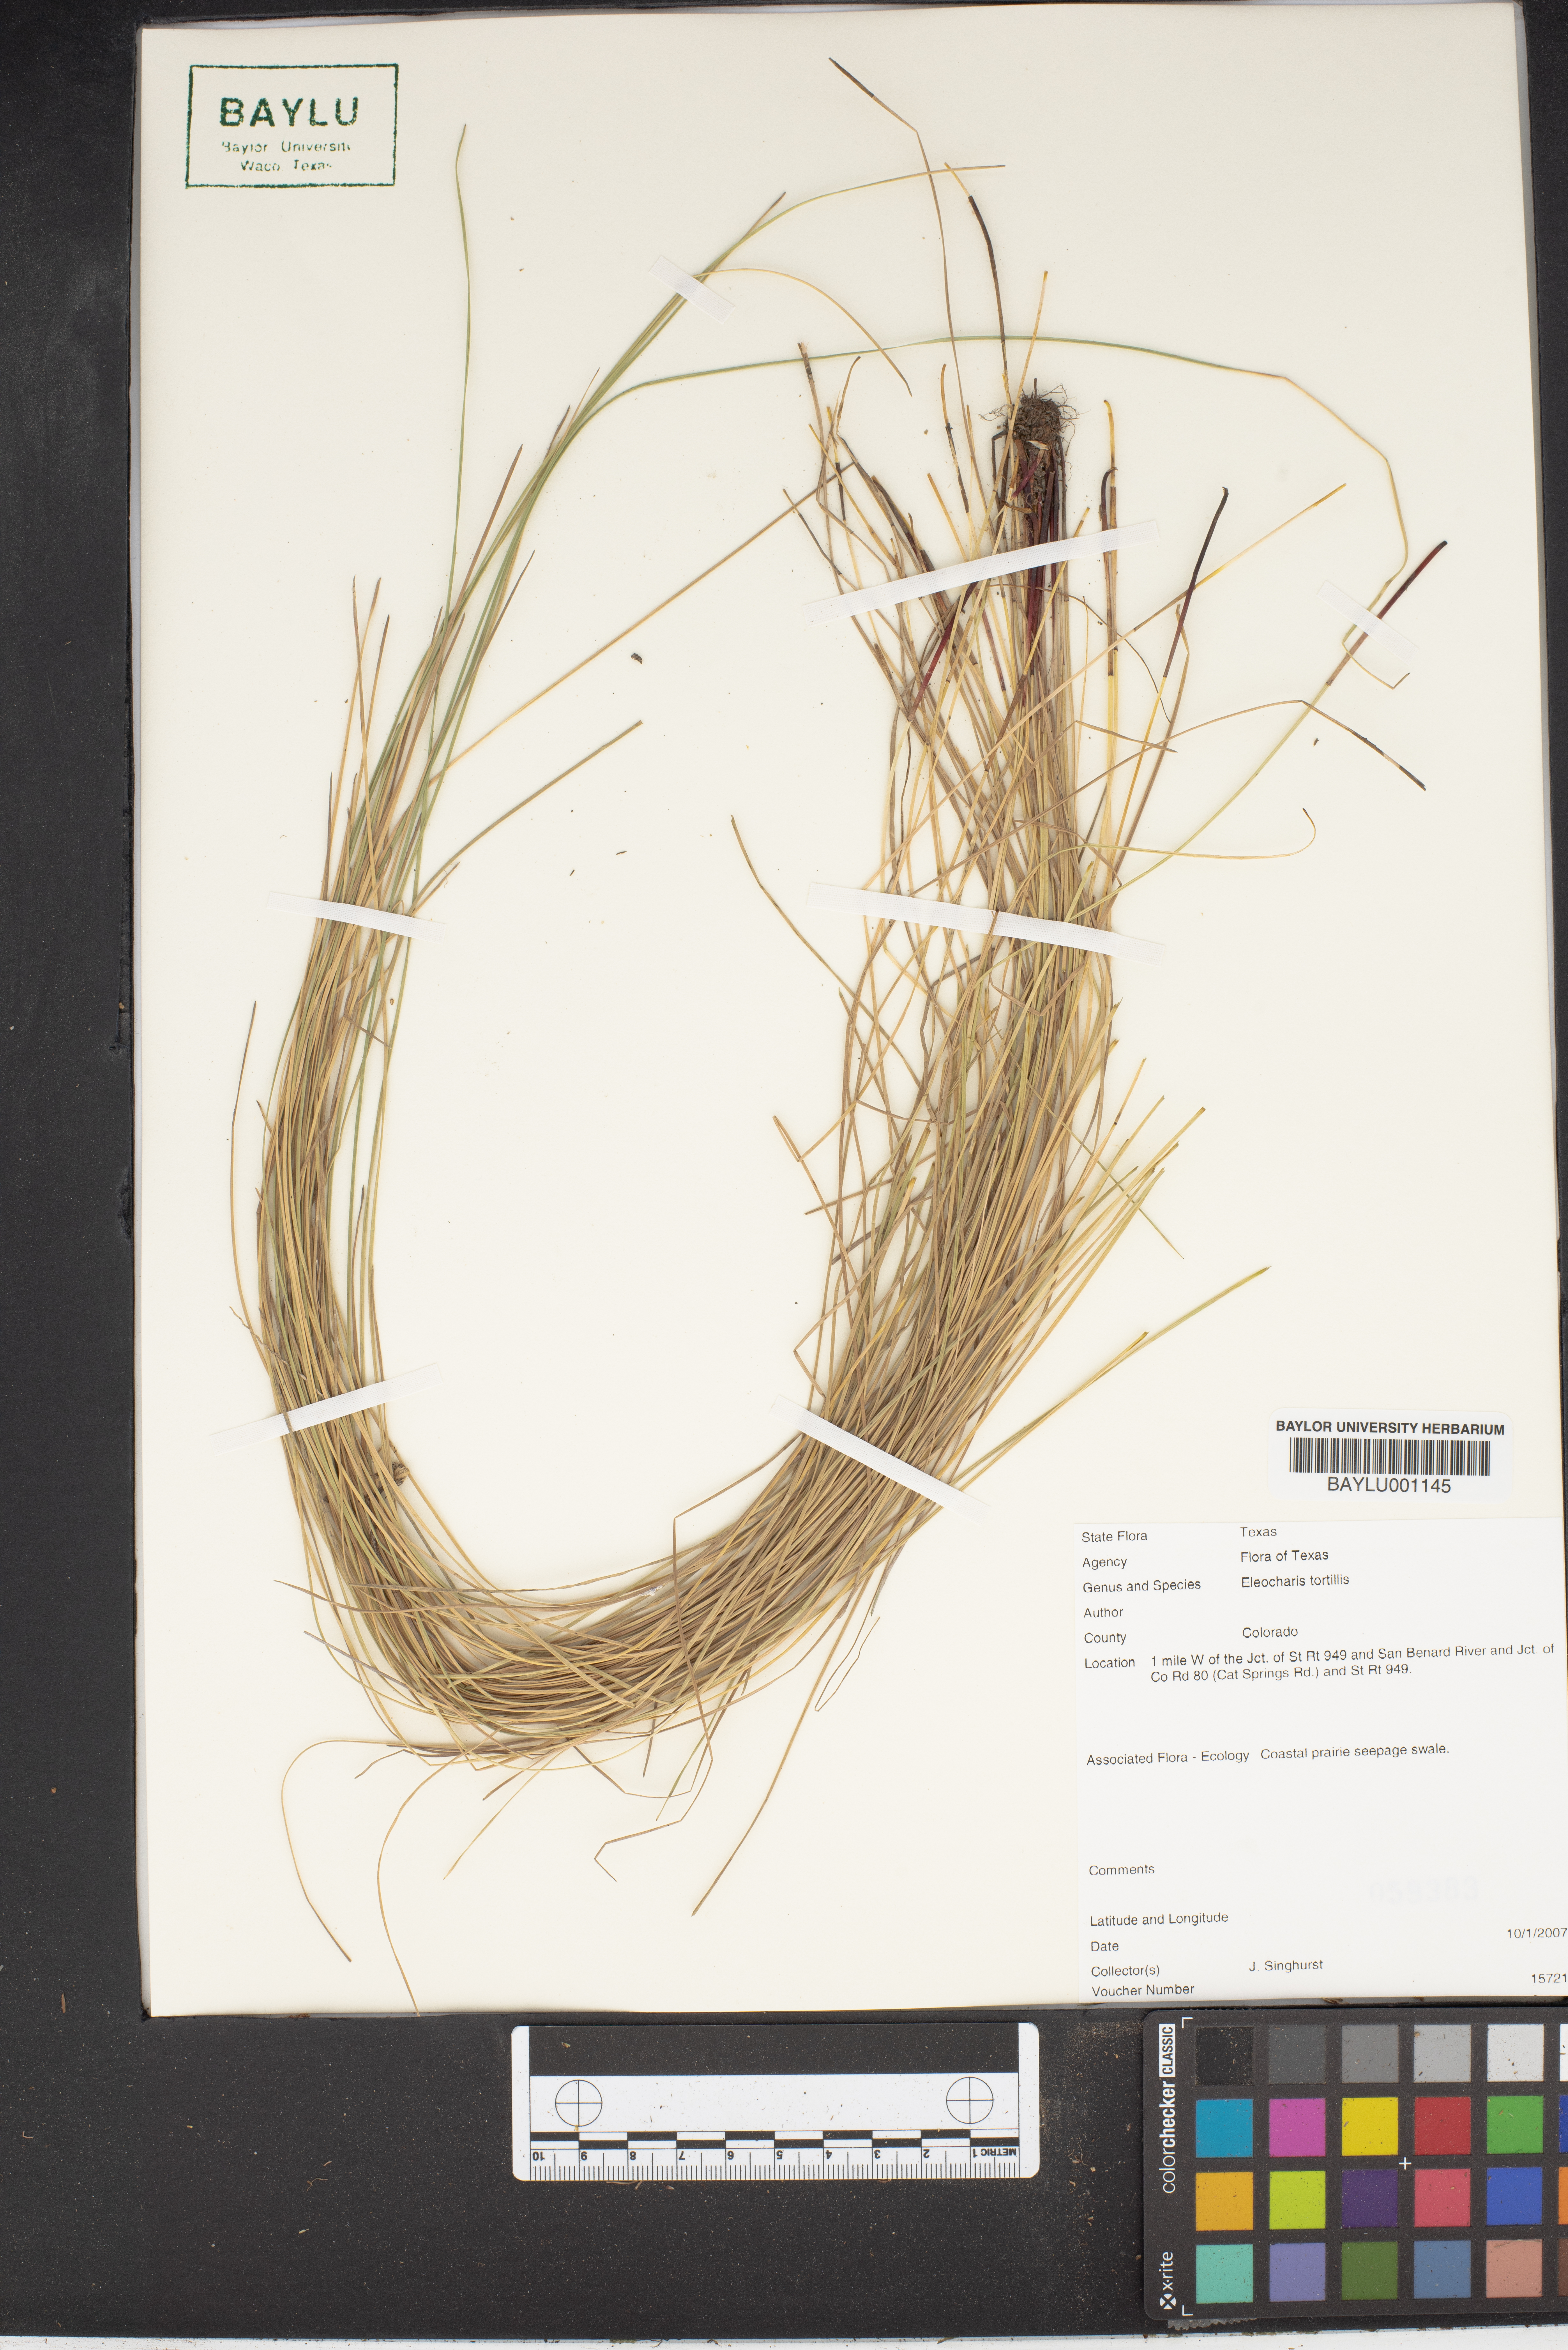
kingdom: Plantae
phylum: Tracheophyta
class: Liliopsida
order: Poales
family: Cyperaceae
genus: Eleocharis
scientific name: Eleocharis tortilis
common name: Twisted spike sedge
